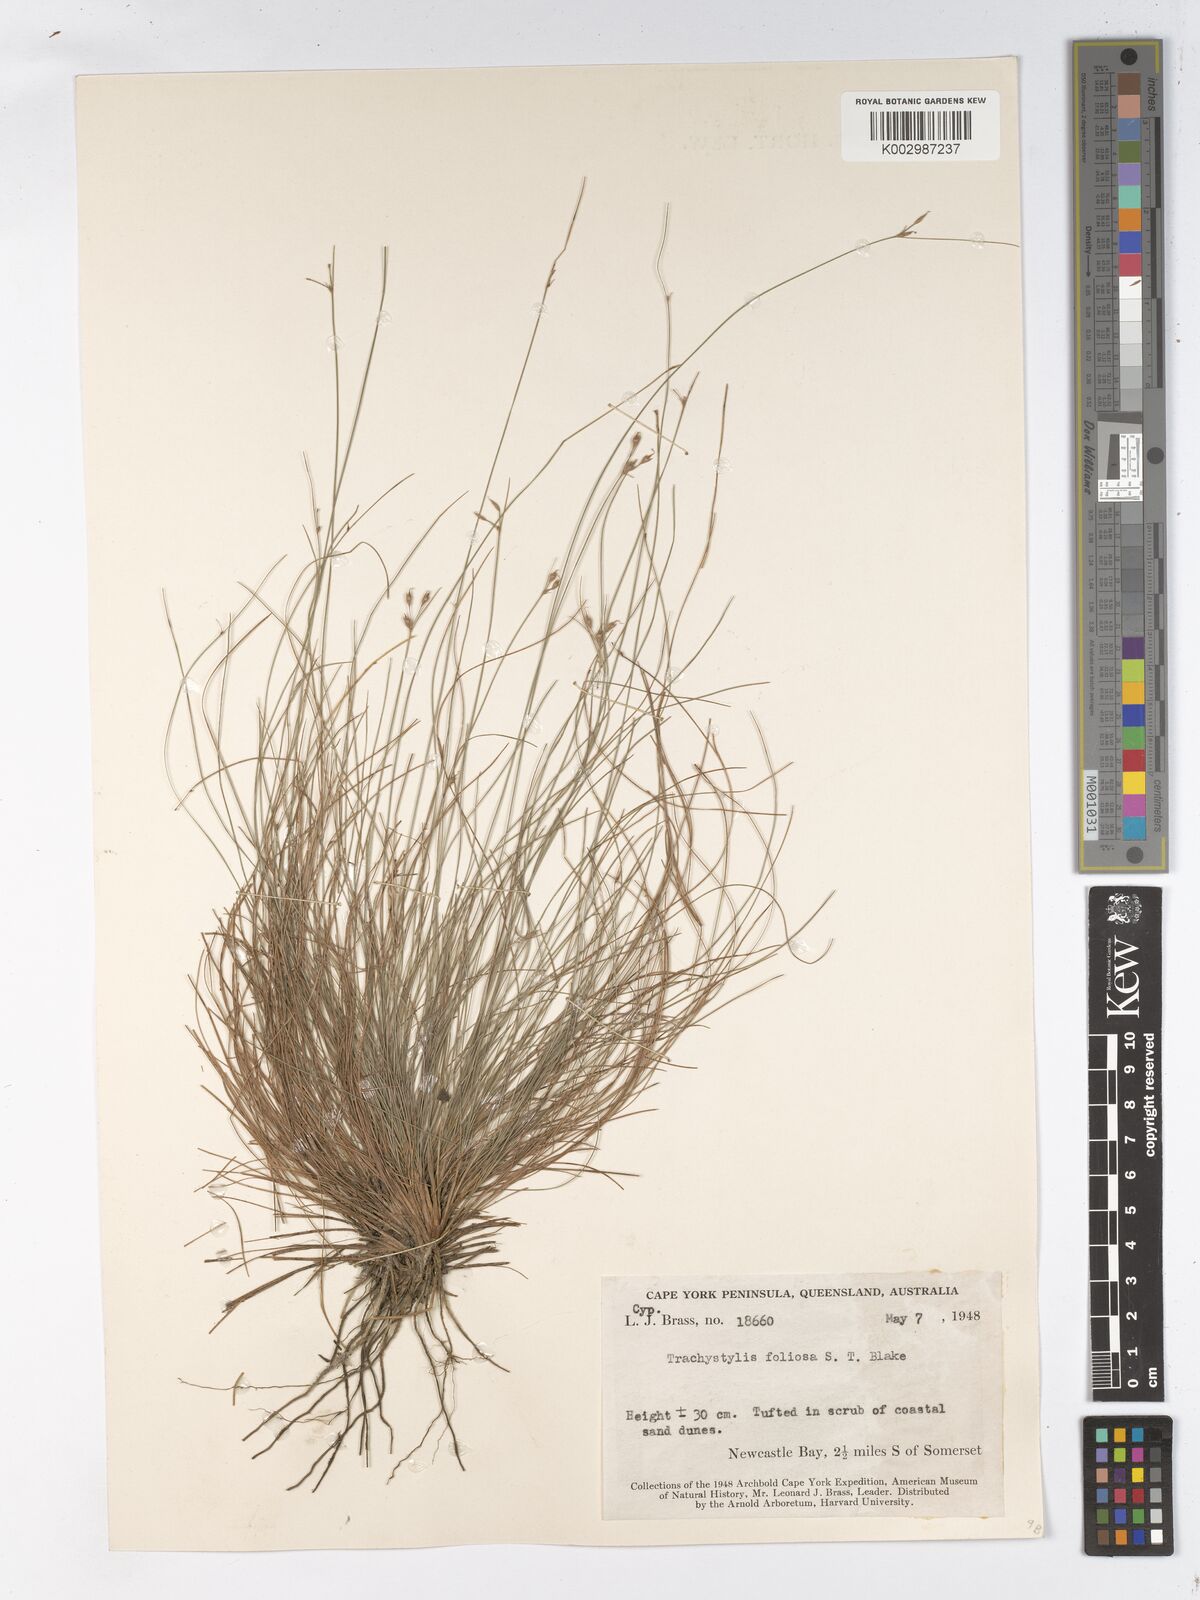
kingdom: Plantae
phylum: Tracheophyta
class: Liliopsida
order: Poales
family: Cyperaceae
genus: Trachystylis
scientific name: Trachystylis stradbrokensis
